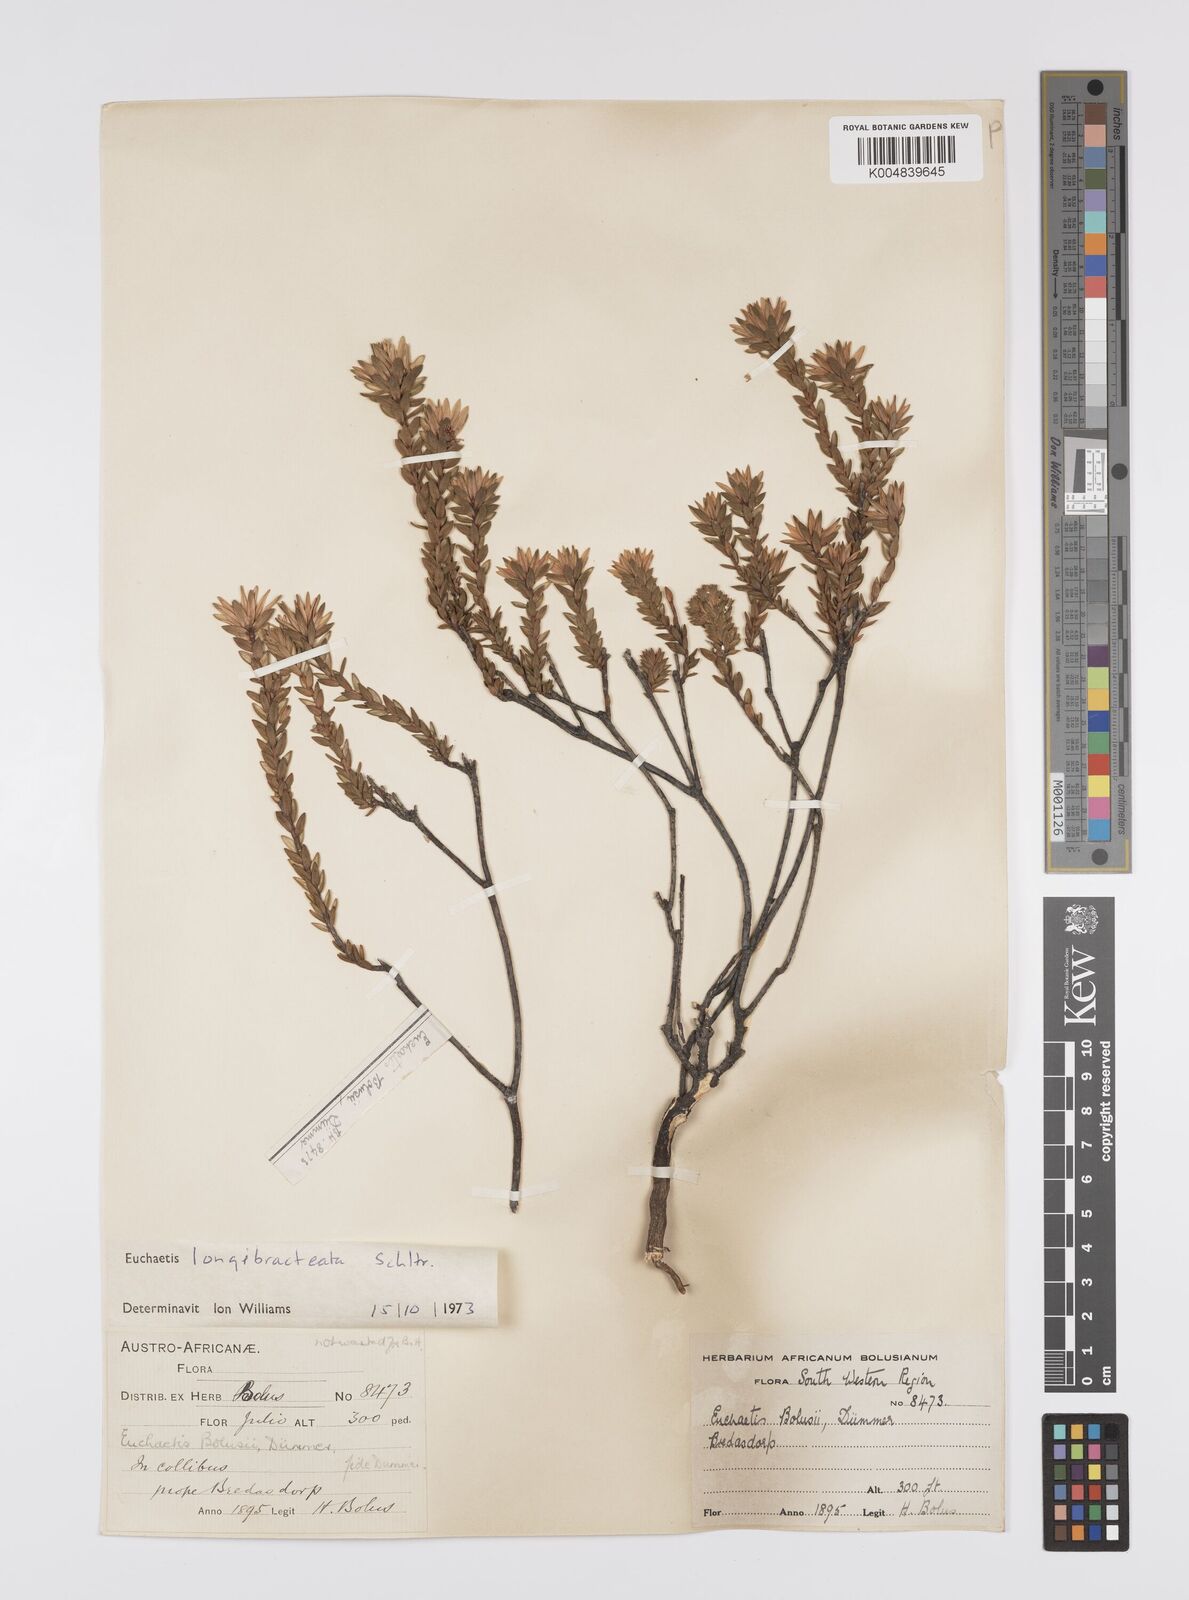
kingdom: Plantae
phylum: Tracheophyta
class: Magnoliopsida
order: Sapindales
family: Rutaceae
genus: Euchaetis
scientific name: Euchaetis longibracteata
